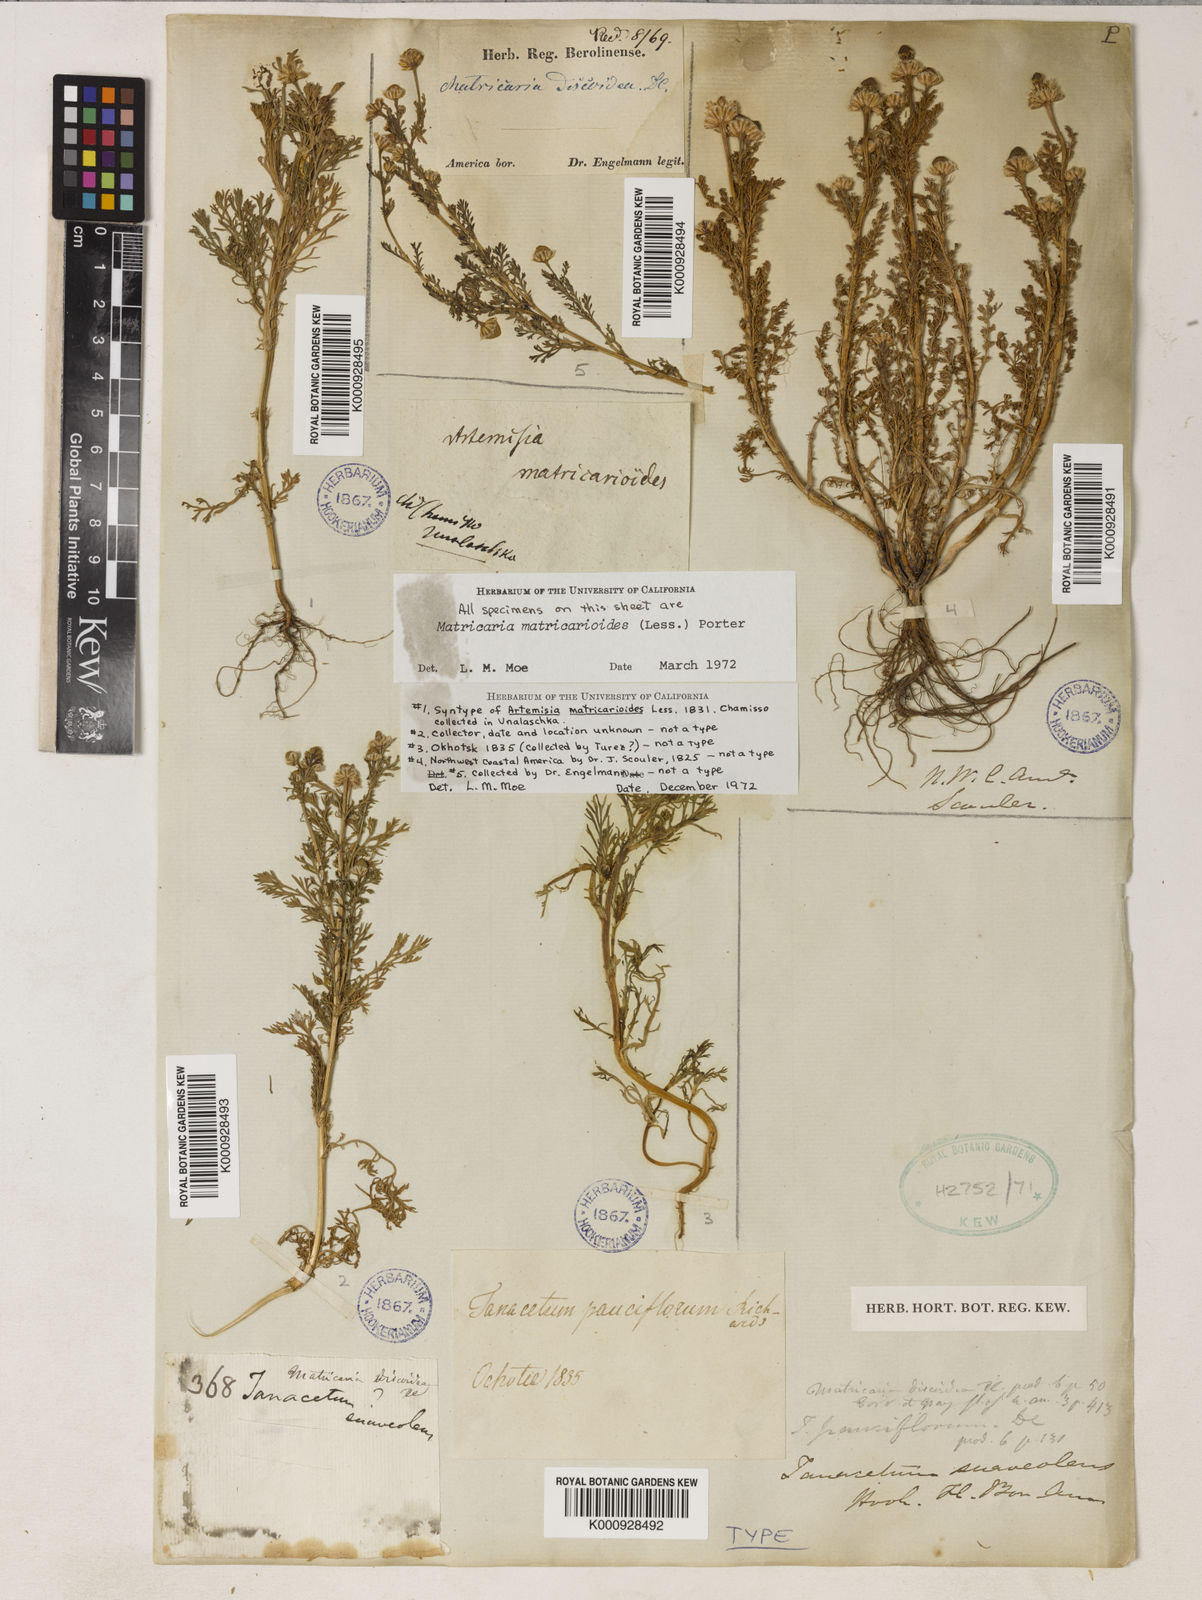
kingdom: Plantae
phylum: Tracheophyta
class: Magnoliopsida
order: Asterales
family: Asteraceae
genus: Matricaria
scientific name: Matricaria
